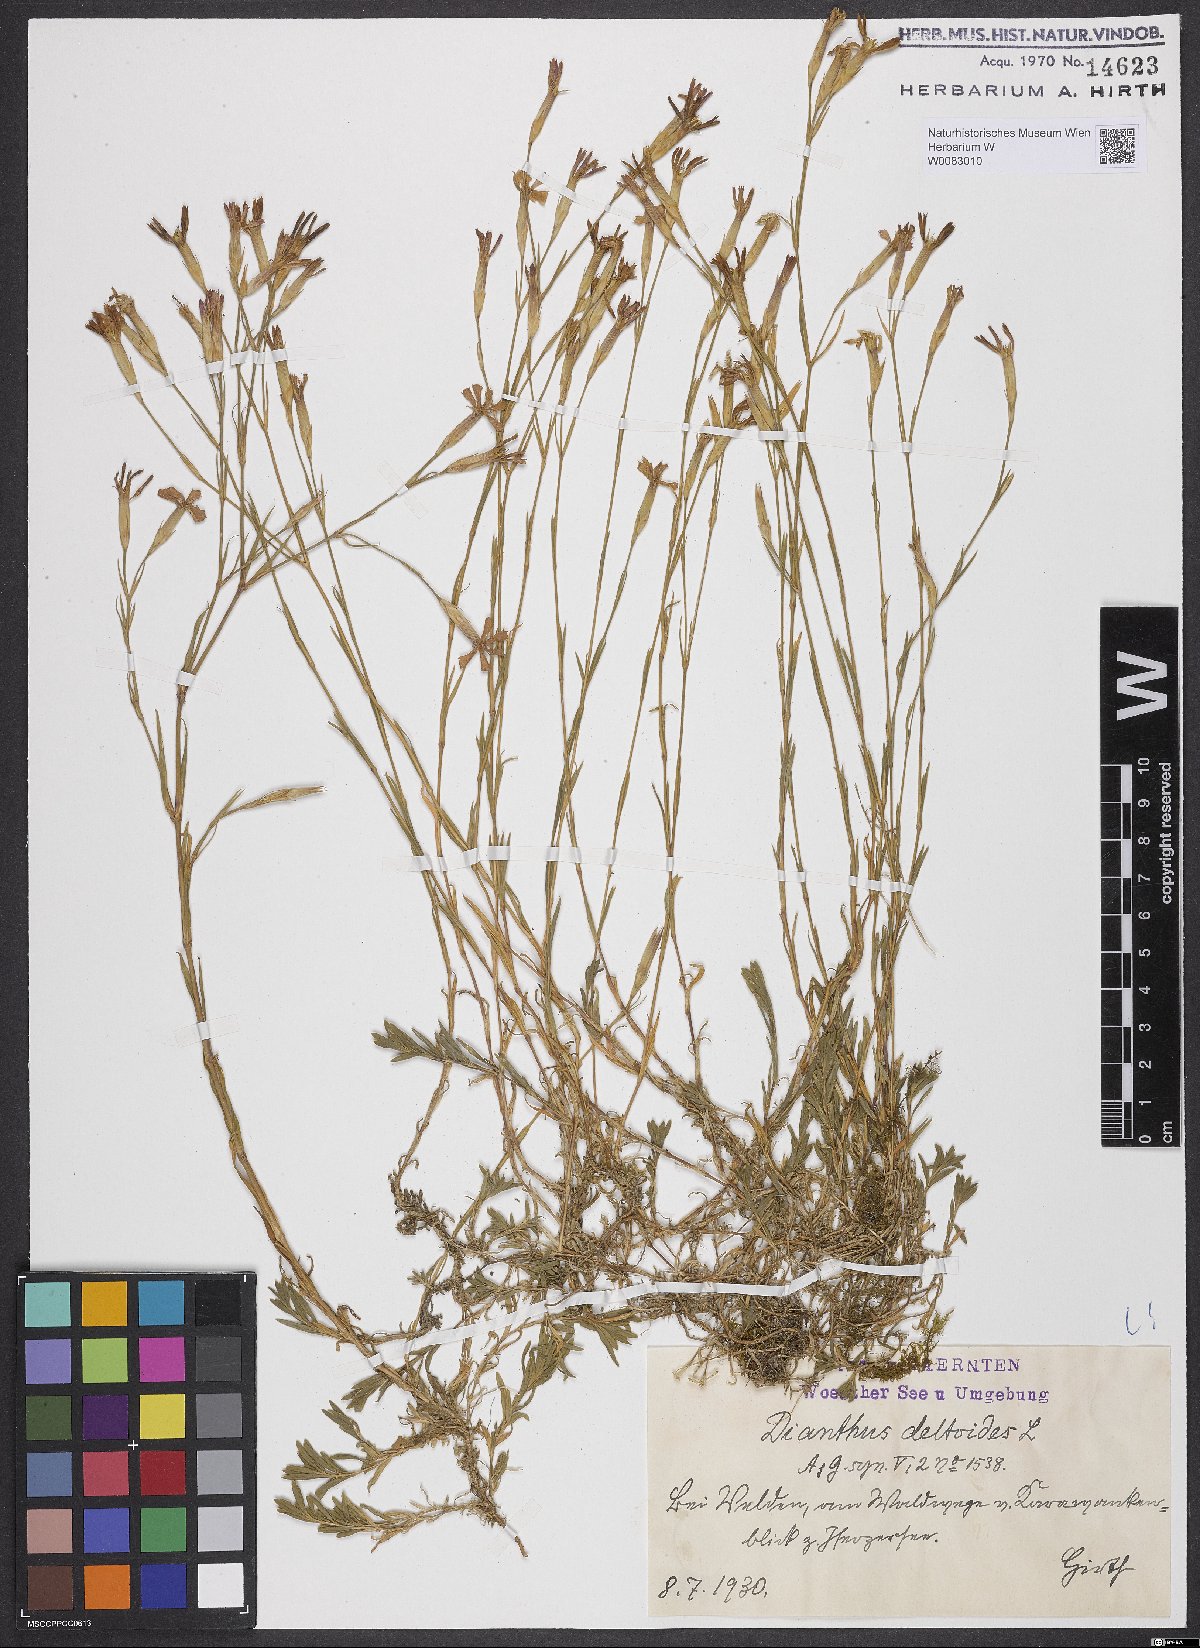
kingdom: Plantae
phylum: Tracheophyta
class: Magnoliopsida
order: Caryophyllales
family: Caryophyllaceae
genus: Dianthus
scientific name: Dianthus deltoides
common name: Maiden pink
